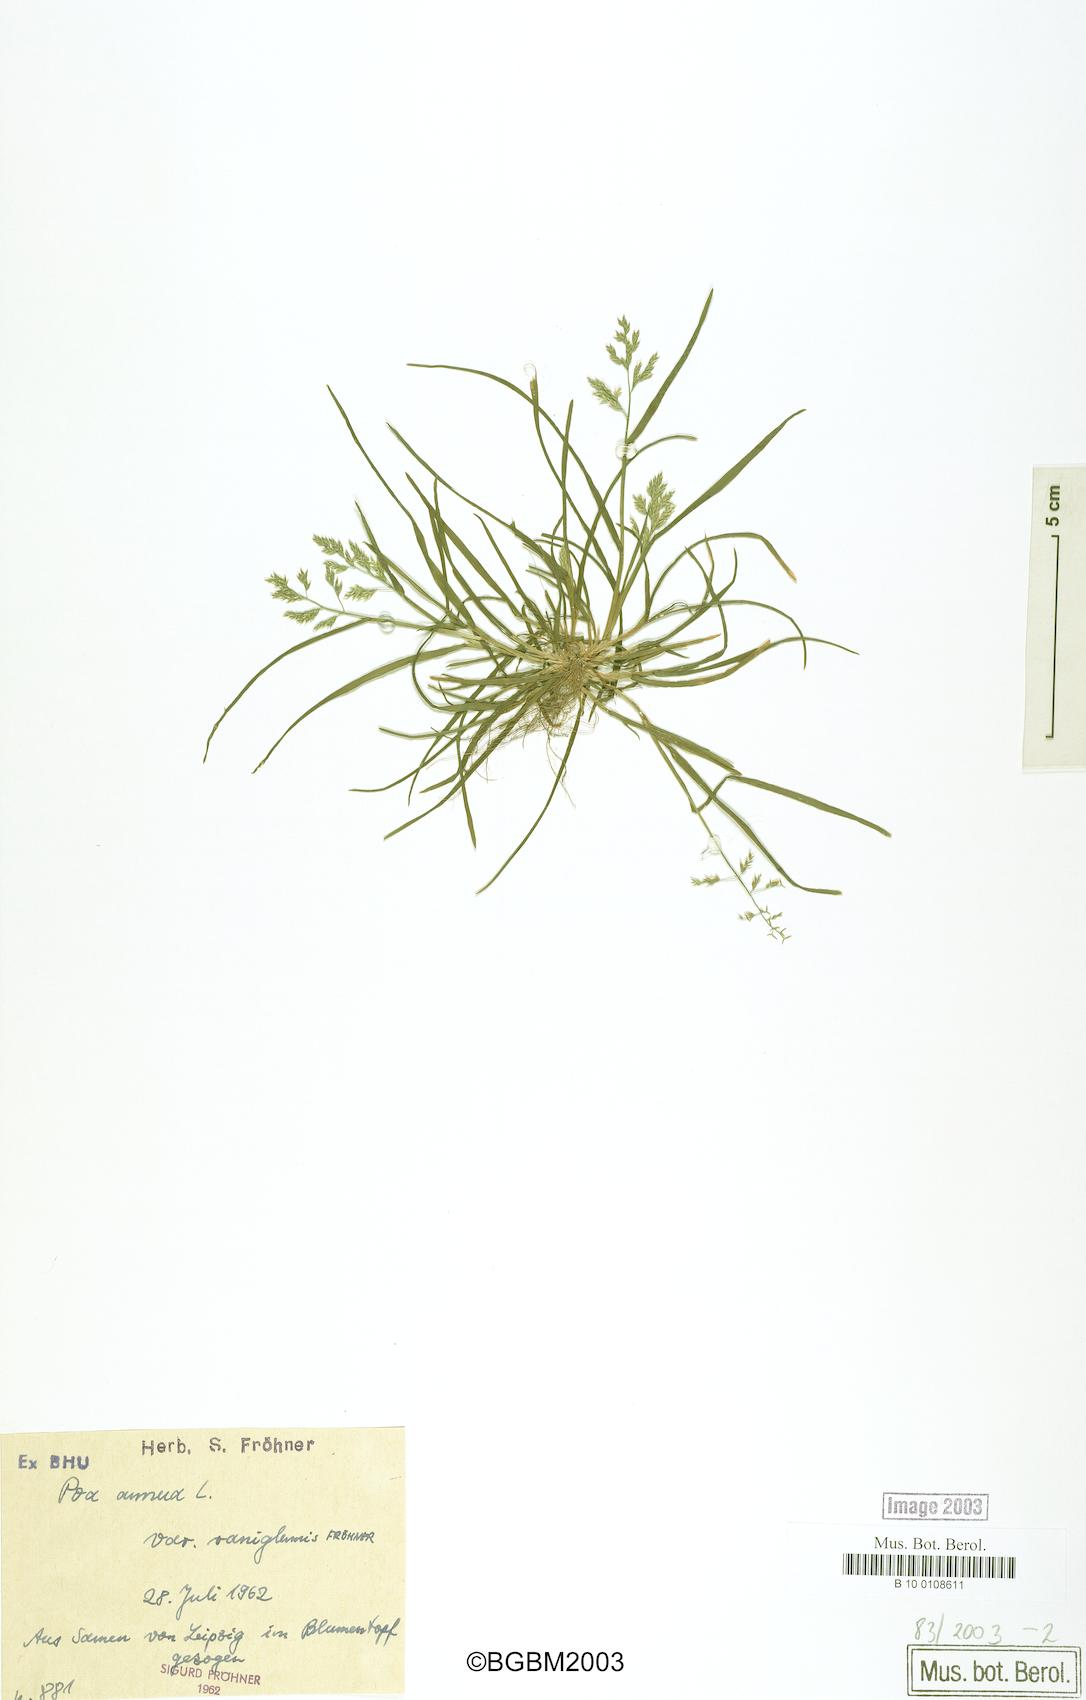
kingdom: Plantae
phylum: Tracheophyta
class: Liliopsida
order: Poales
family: Poaceae
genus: Poa
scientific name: Poa annua
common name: Annual bluegrass
